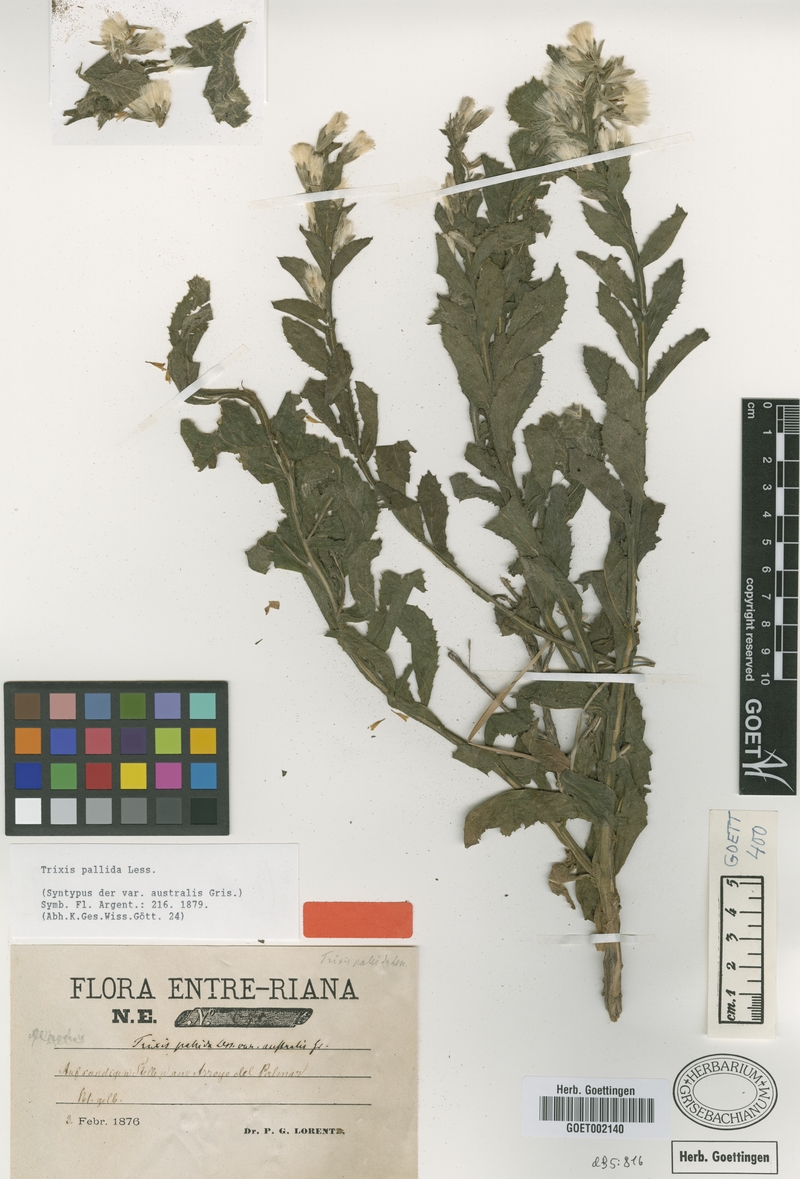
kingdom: Plantae
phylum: Tracheophyta
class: Magnoliopsida
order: Asterales
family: Asteraceae
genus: Trixis
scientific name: Trixis pallida
